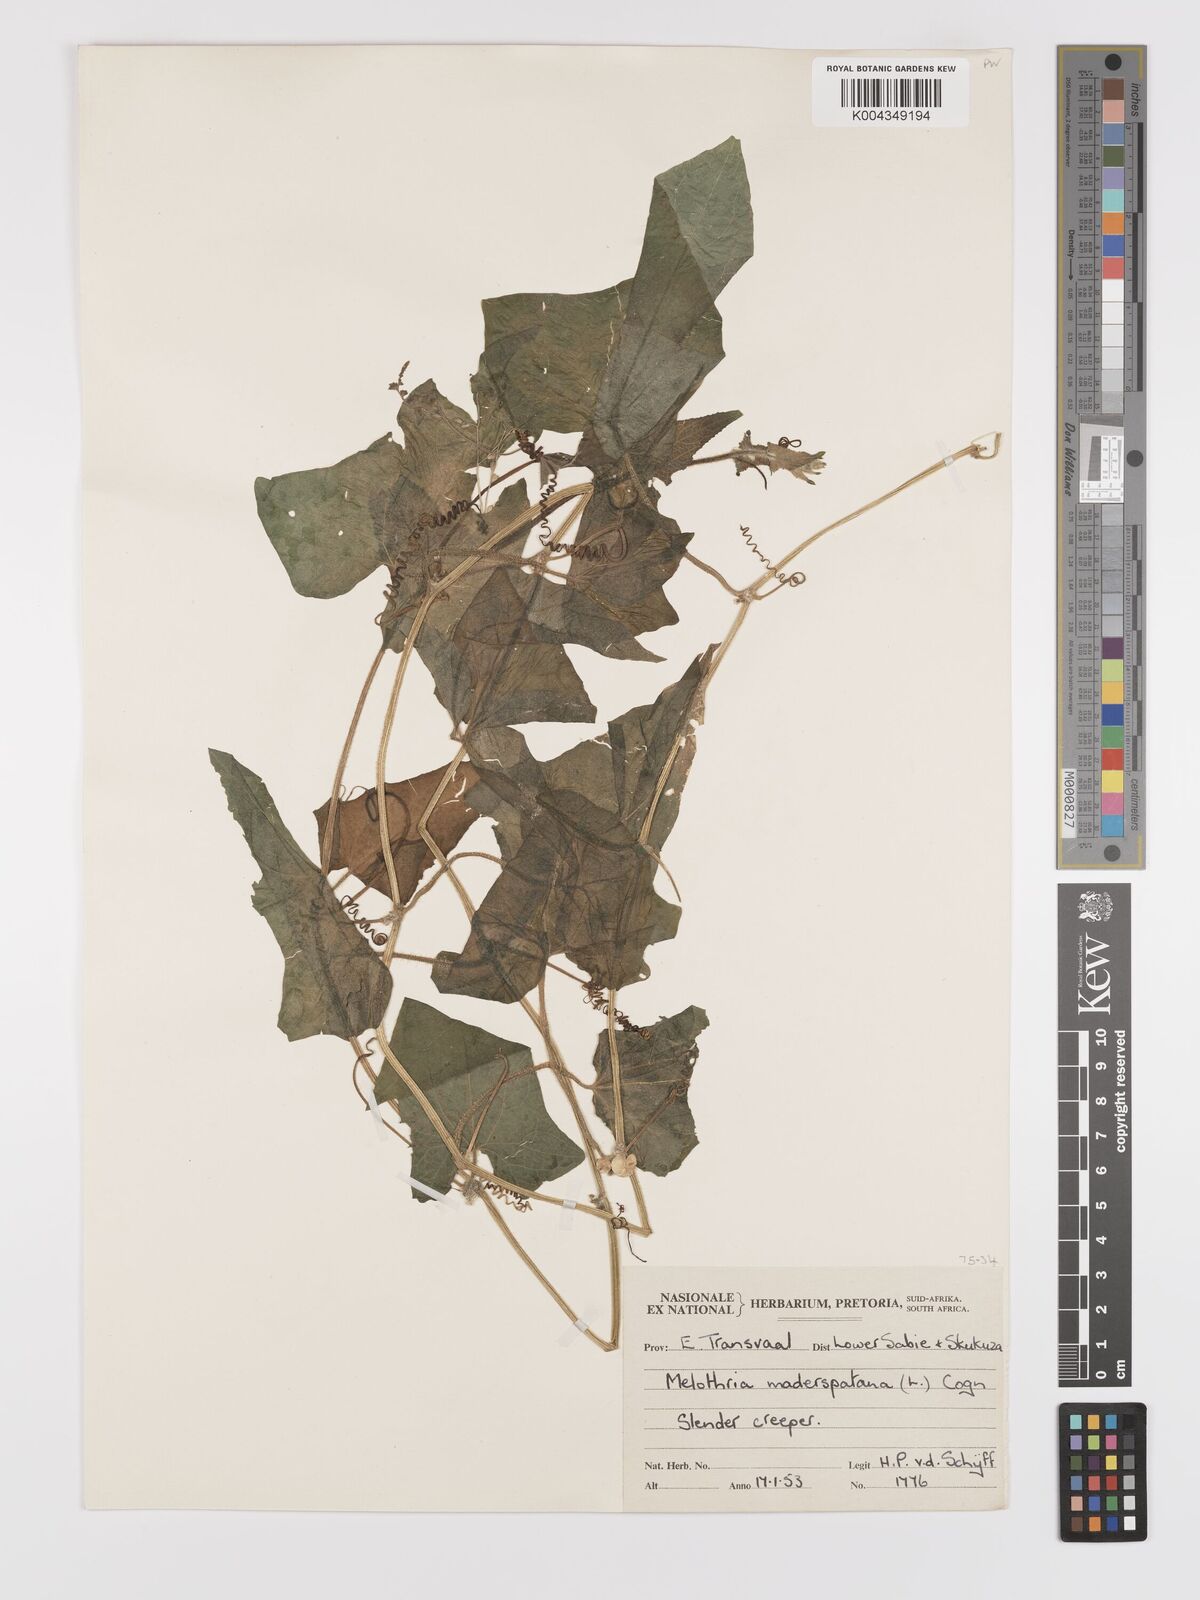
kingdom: Plantae
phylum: Tracheophyta
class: Magnoliopsida
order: Cucurbitales
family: Cucurbitaceae
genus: Cucumis
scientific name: Cucumis maderaspatanus
